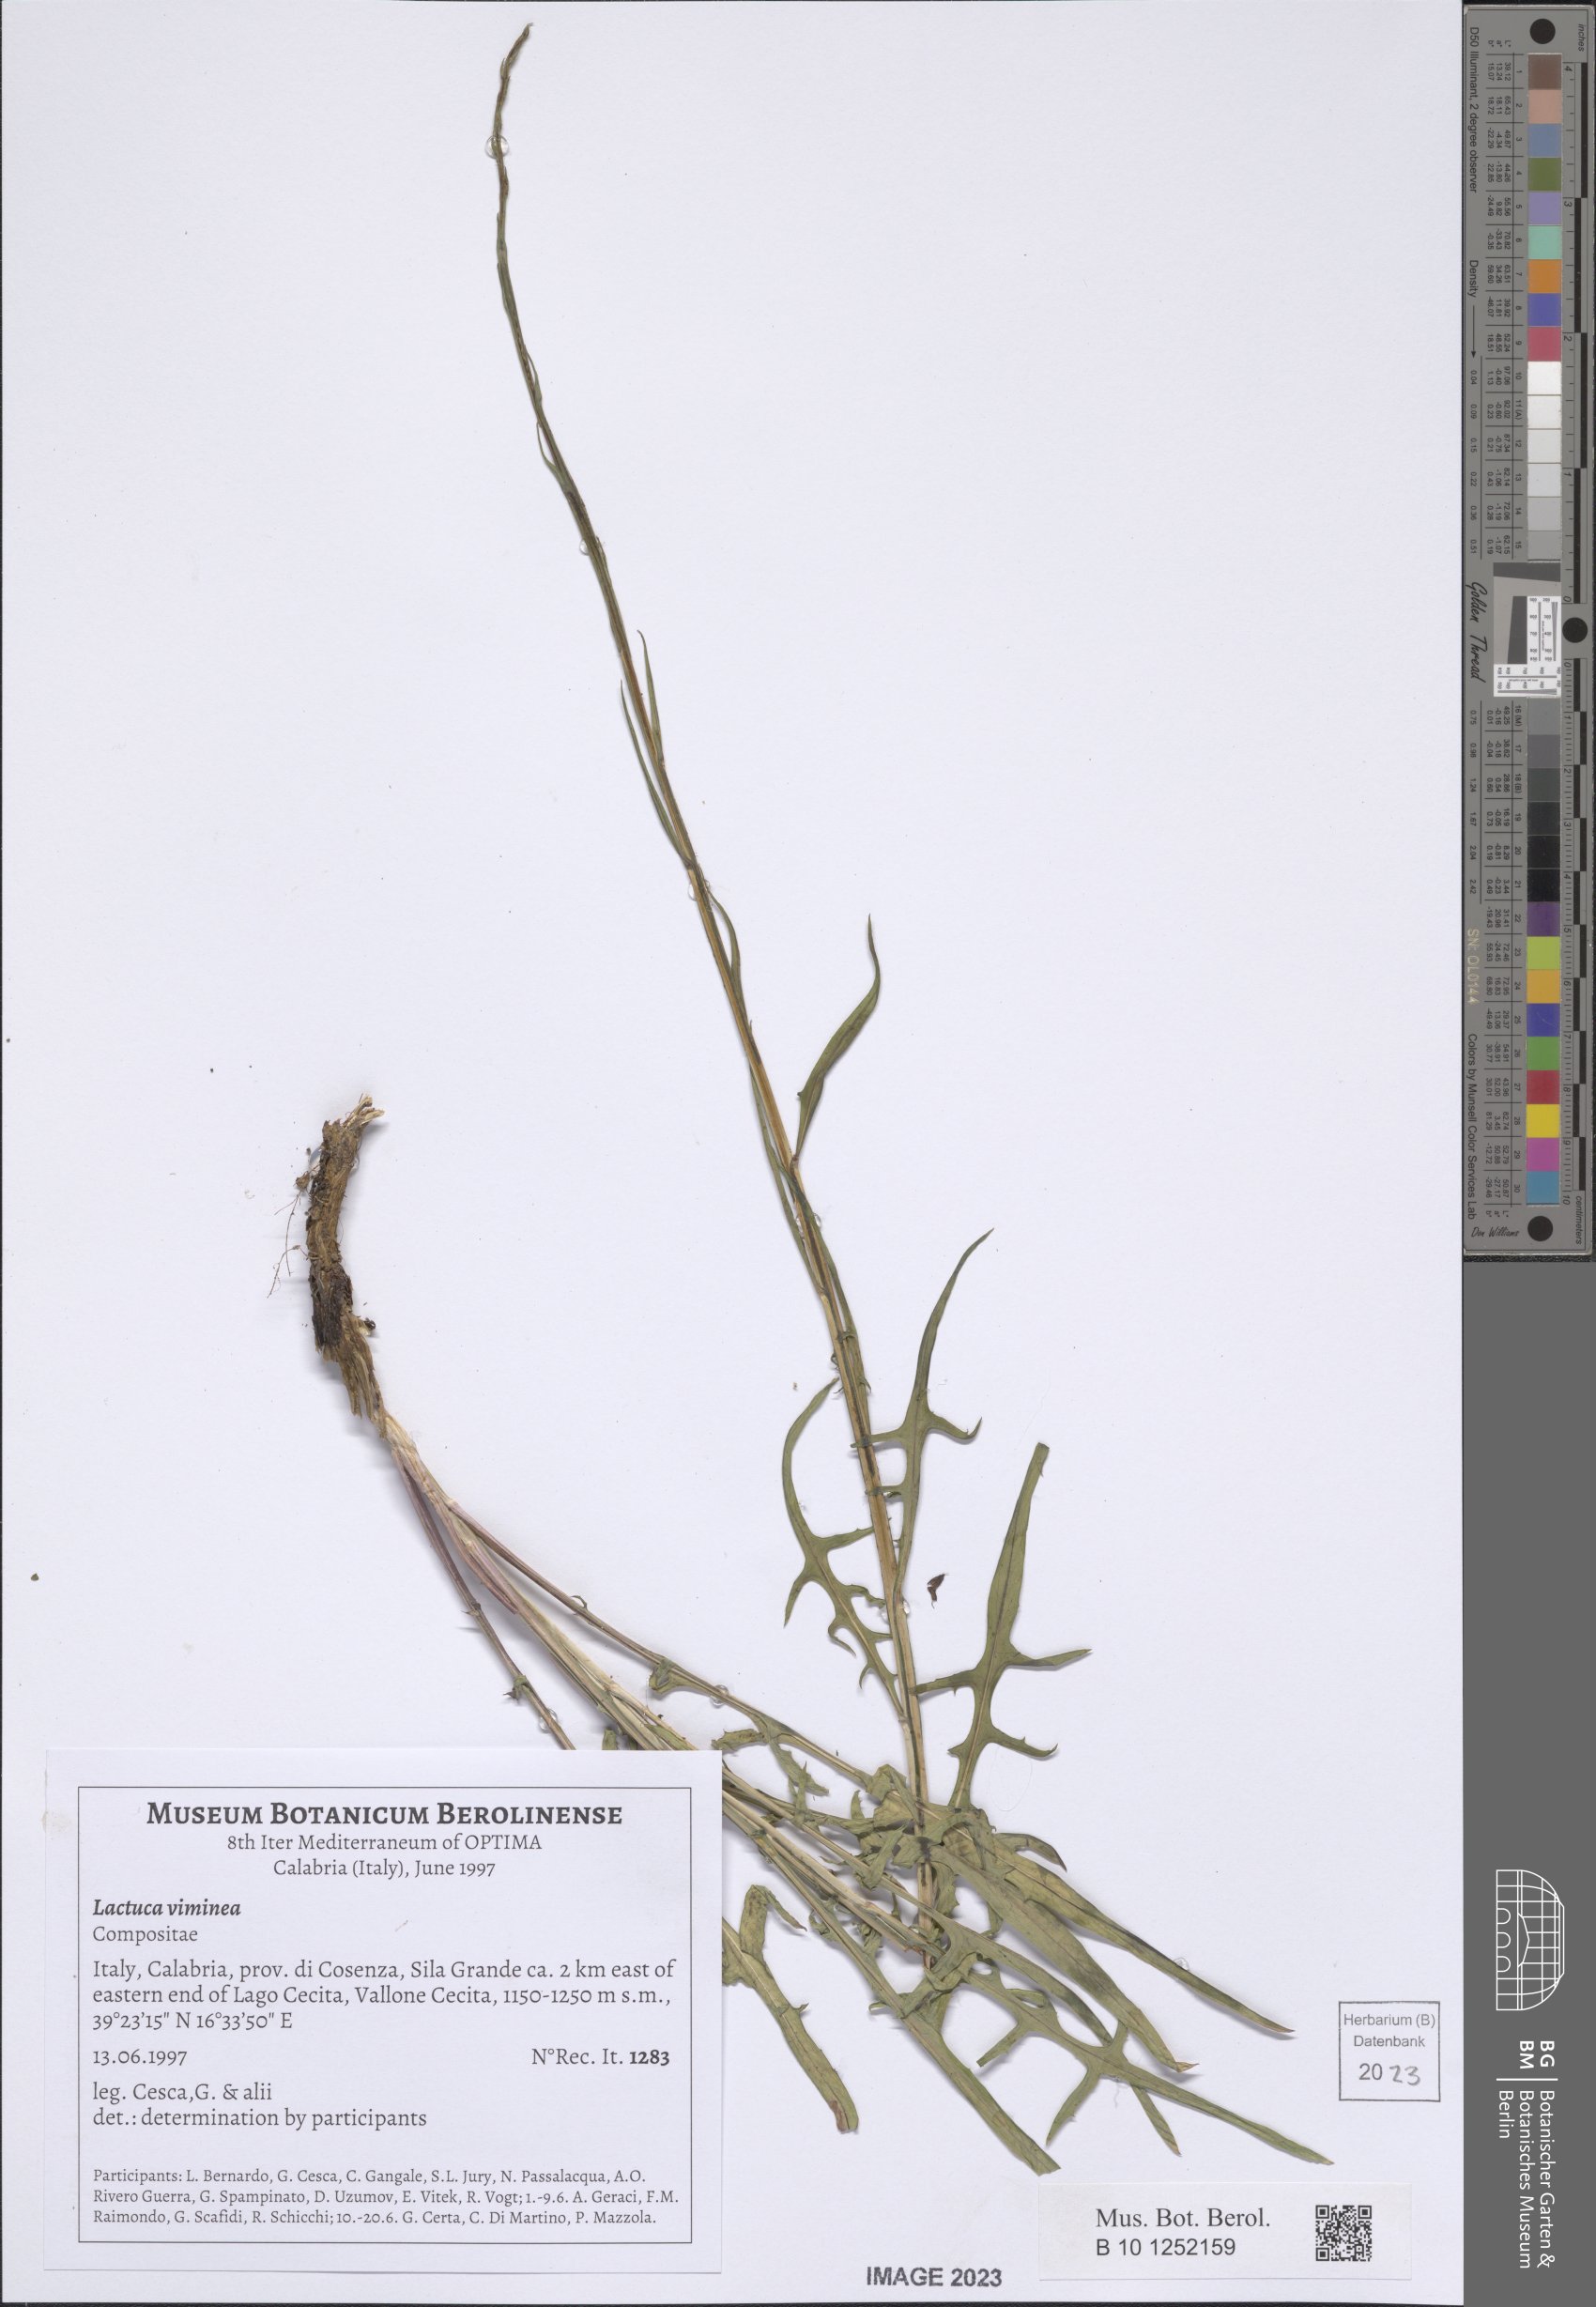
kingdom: Plantae
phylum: Tracheophyta
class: Magnoliopsida
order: Asterales
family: Asteraceae
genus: Lactuca
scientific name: Lactuca viminea
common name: Pliant lettuce
